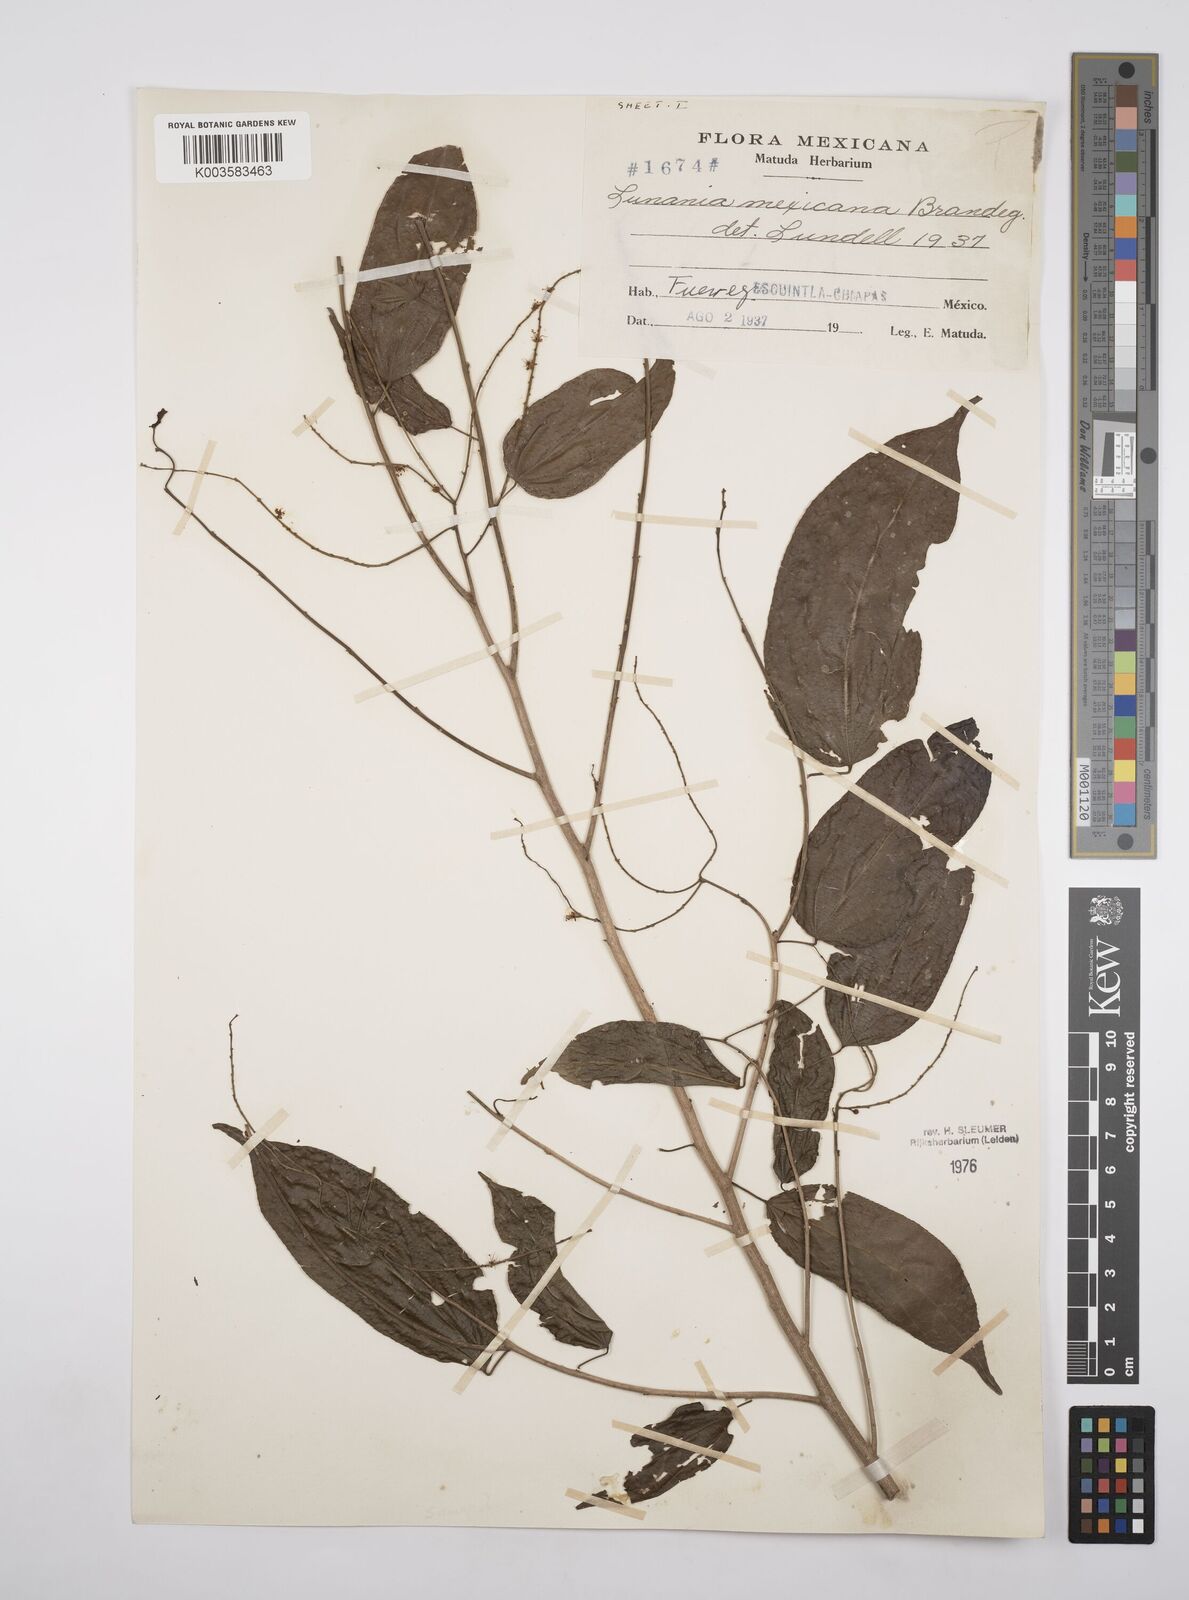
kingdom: Plantae
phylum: Tracheophyta
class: Magnoliopsida
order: Malpighiales
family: Salicaceae
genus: Lunania
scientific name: Lunania mexicana
